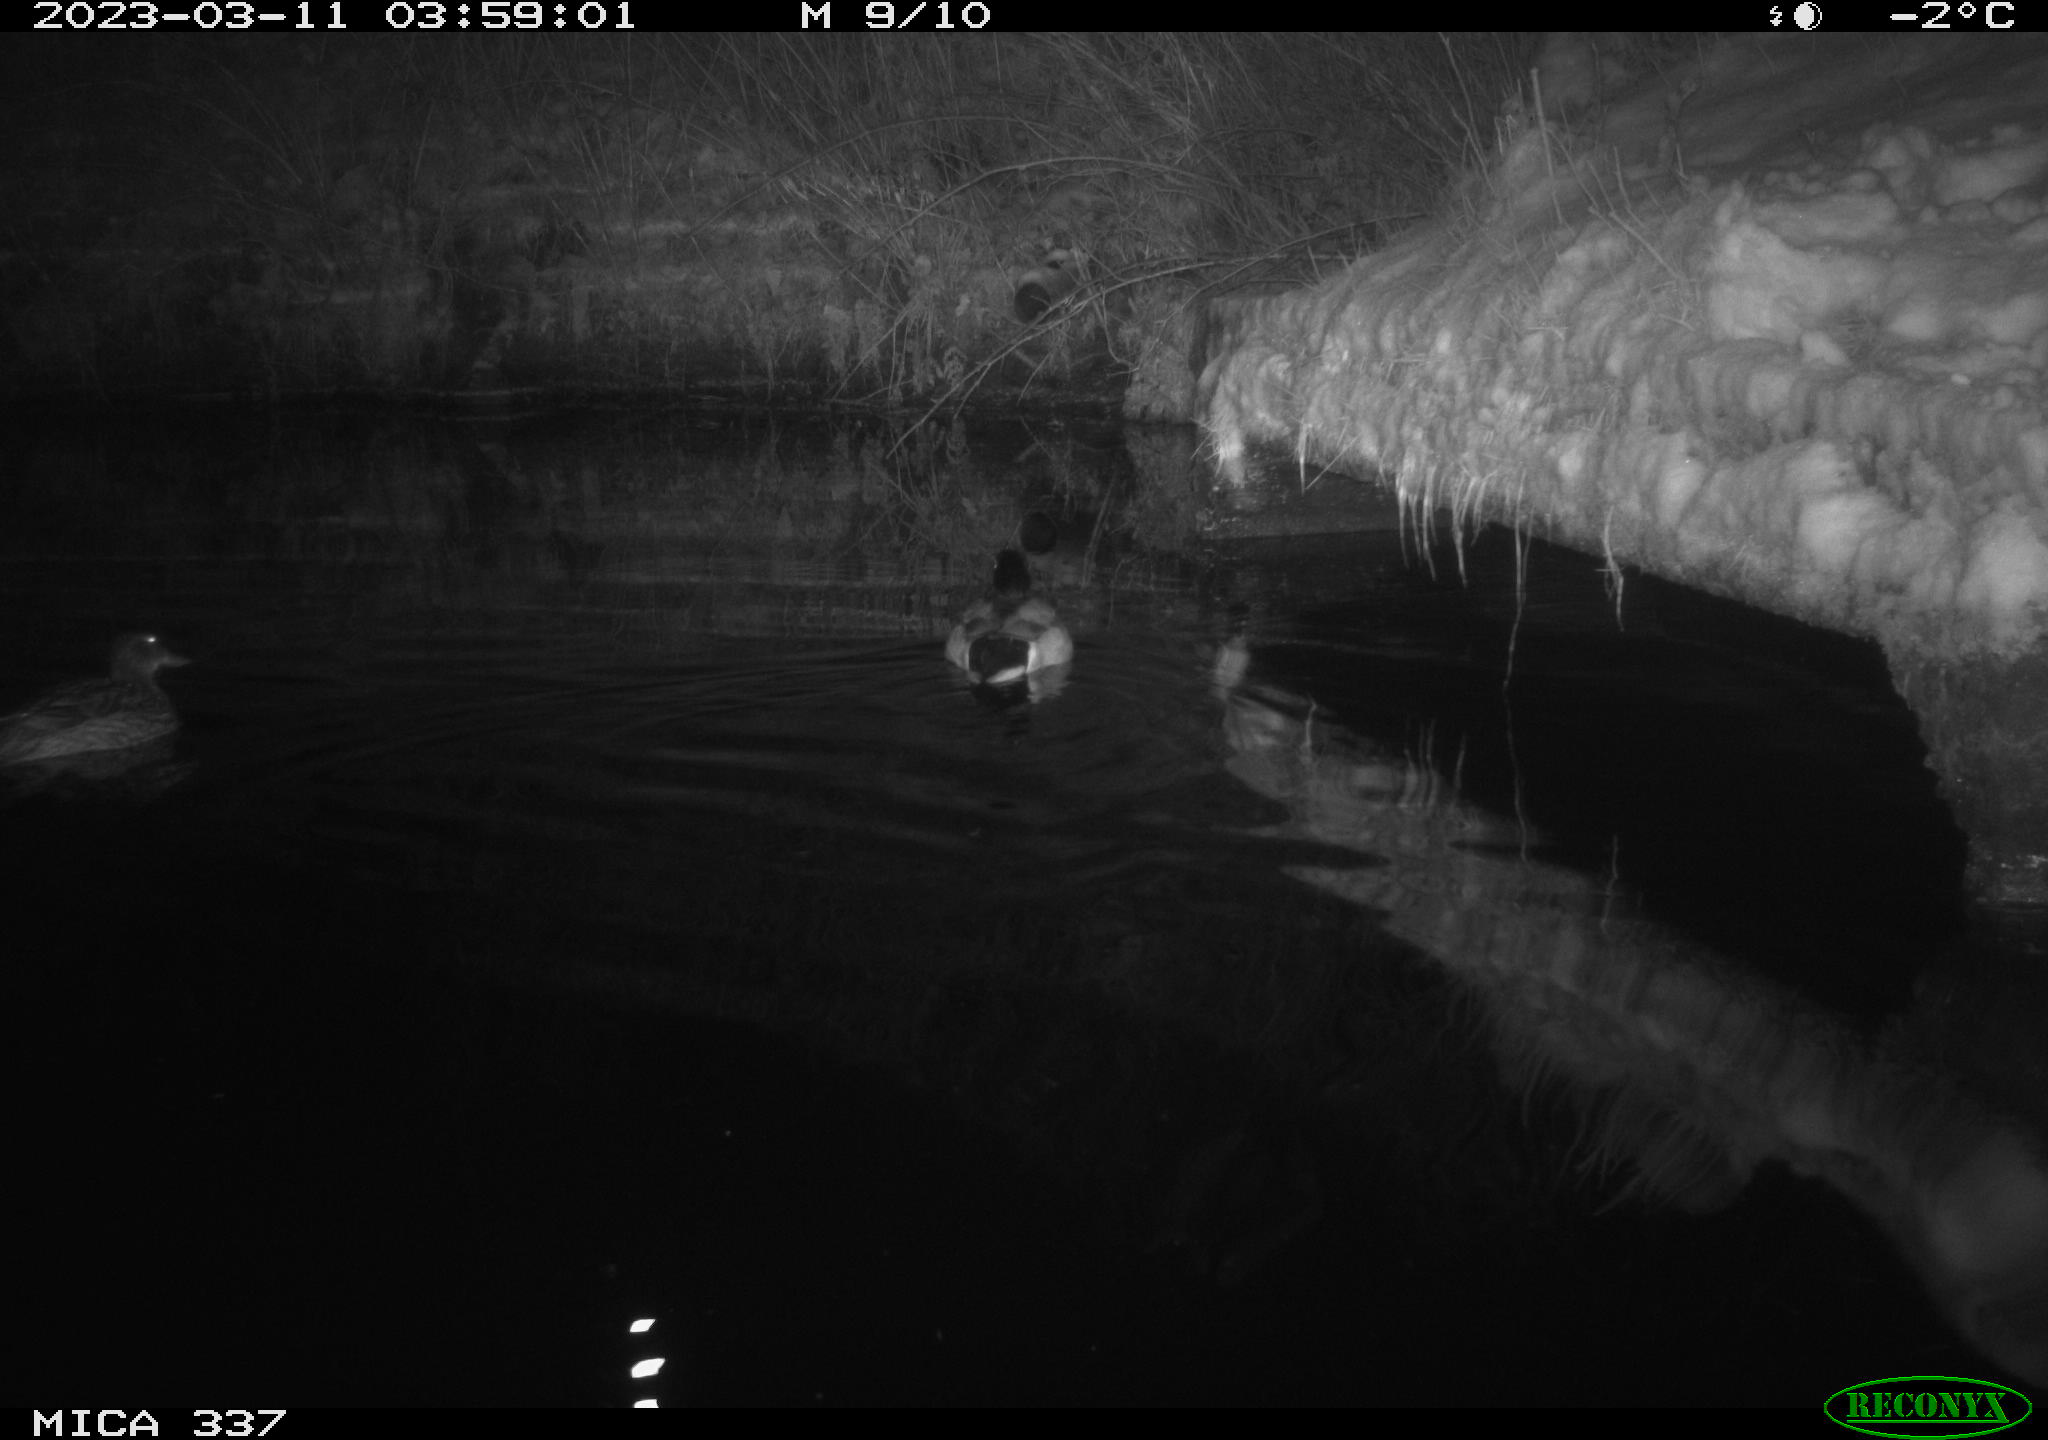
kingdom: Animalia
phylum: Chordata
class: Aves
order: Anseriformes
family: Anatidae
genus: Anas
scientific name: Anas
